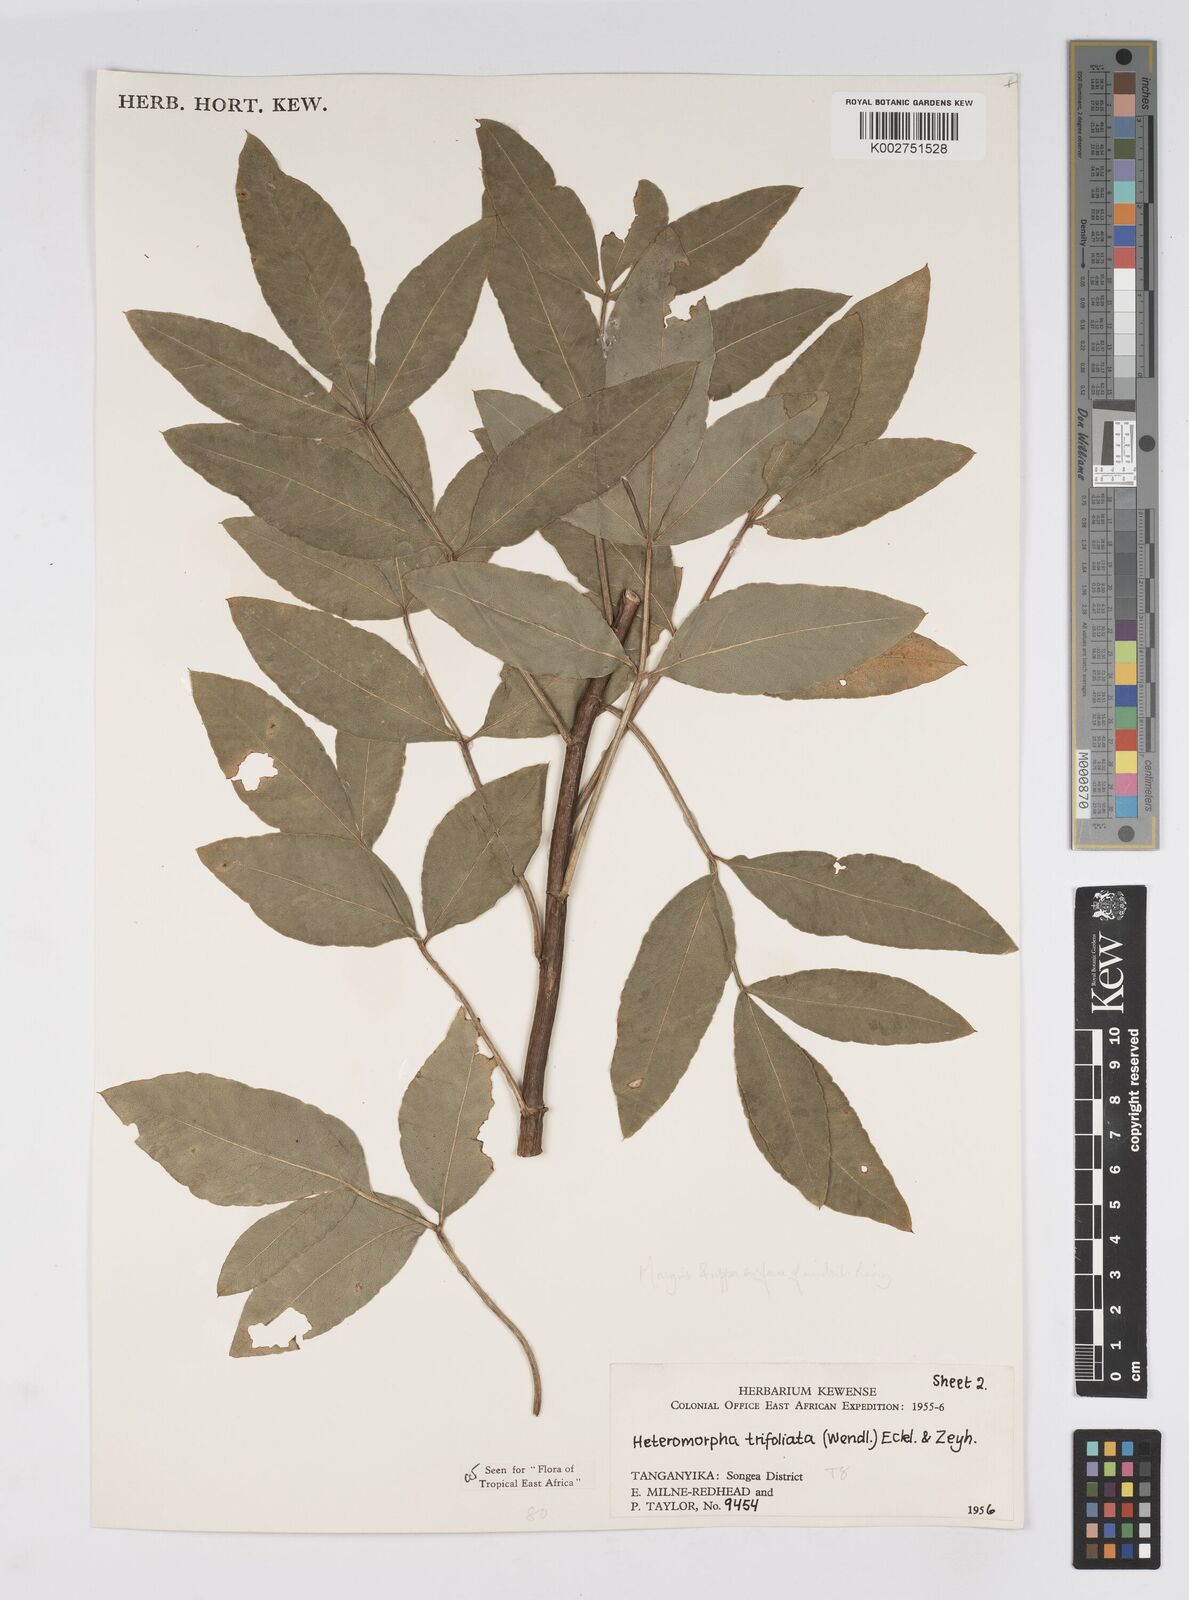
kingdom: Plantae
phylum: Tracheophyta
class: Magnoliopsida
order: Apiales
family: Apiaceae
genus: Heteromorpha
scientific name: Heteromorpha arborescens
